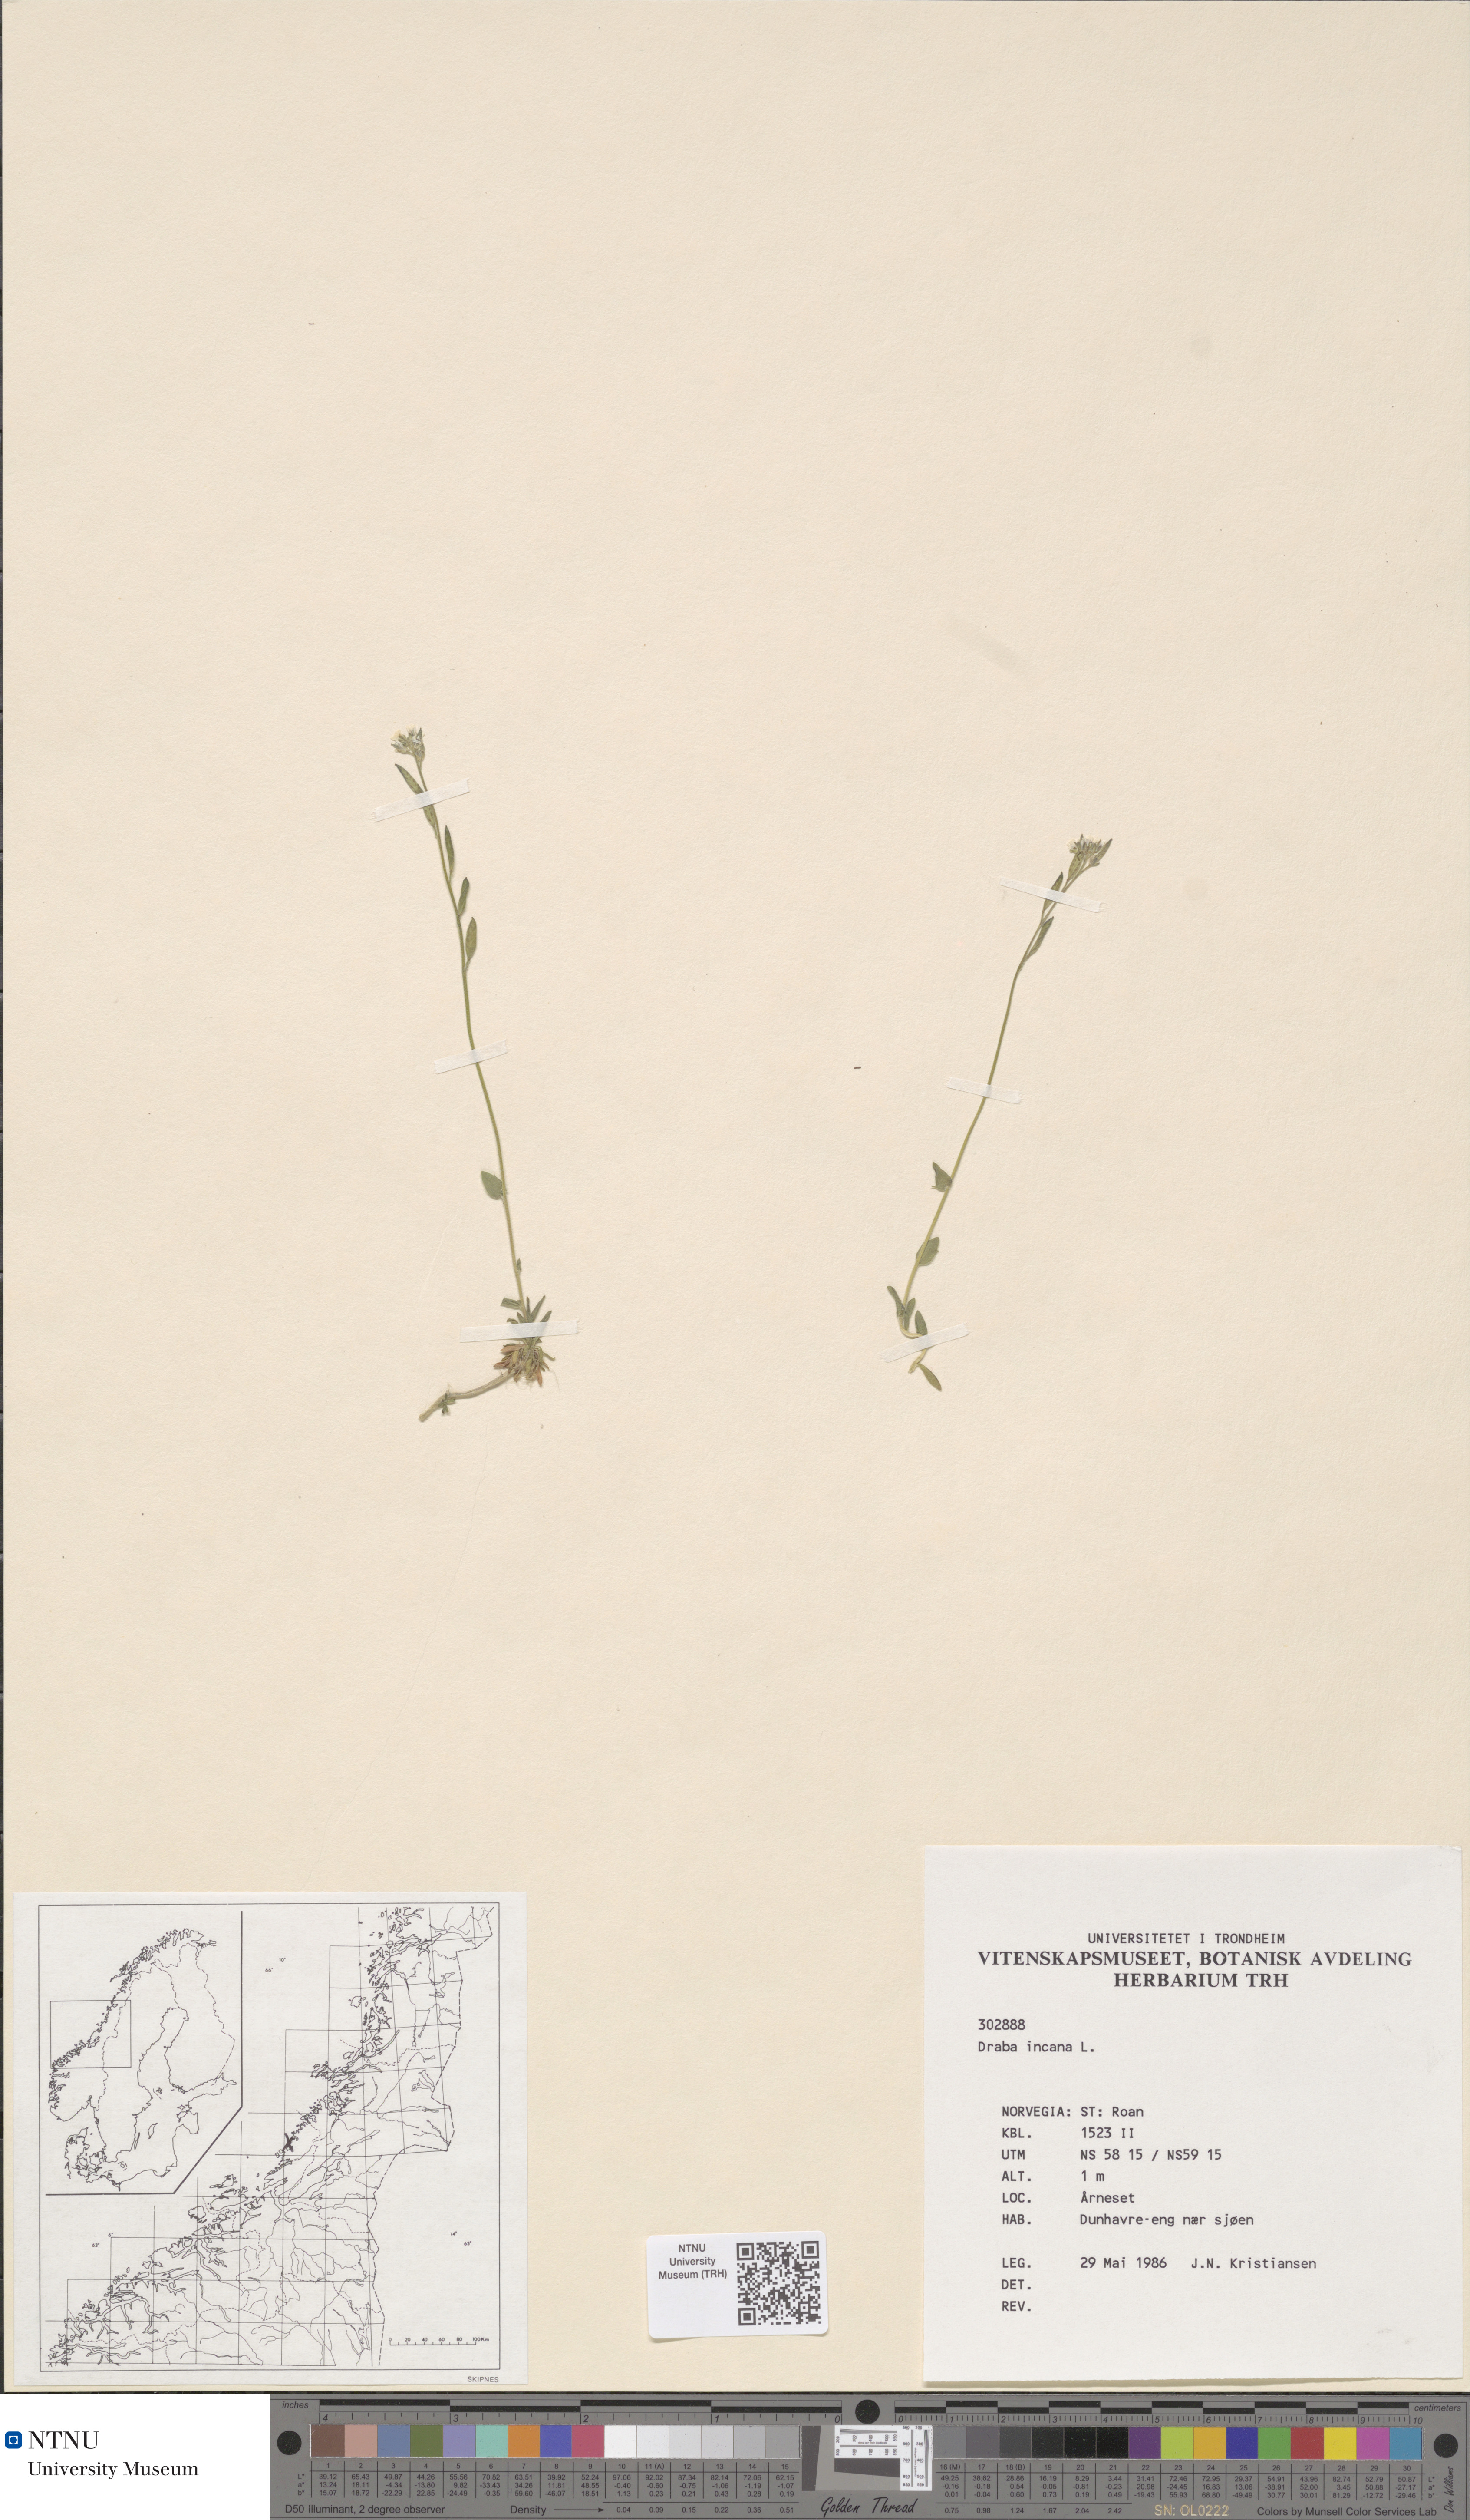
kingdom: Plantae
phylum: Tracheophyta
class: Magnoliopsida
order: Brassicales
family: Brassicaceae
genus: Draba
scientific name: Draba incana
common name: Hoary whitlow-grass
